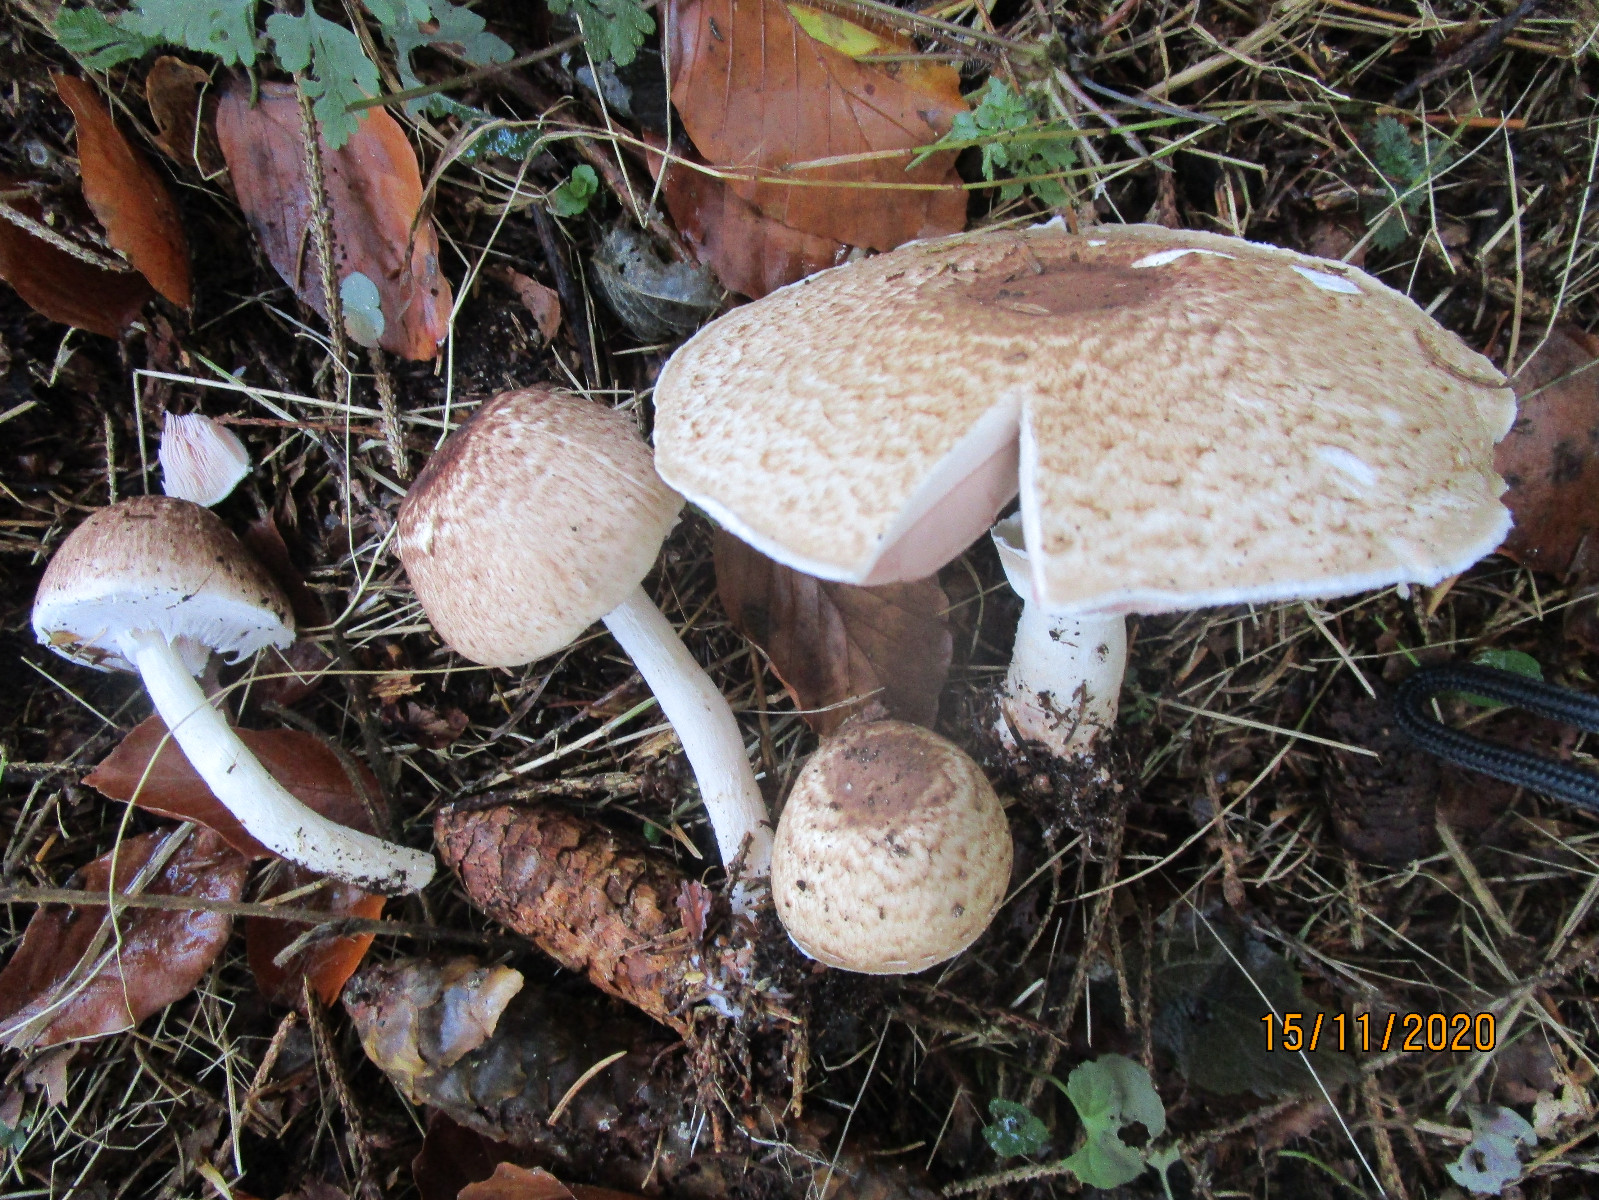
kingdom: Fungi
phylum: Basidiomycota
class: Agaricomycetes
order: Agaricales
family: Agaricaceae
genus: Agaricus
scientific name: Agaricus impudicus
